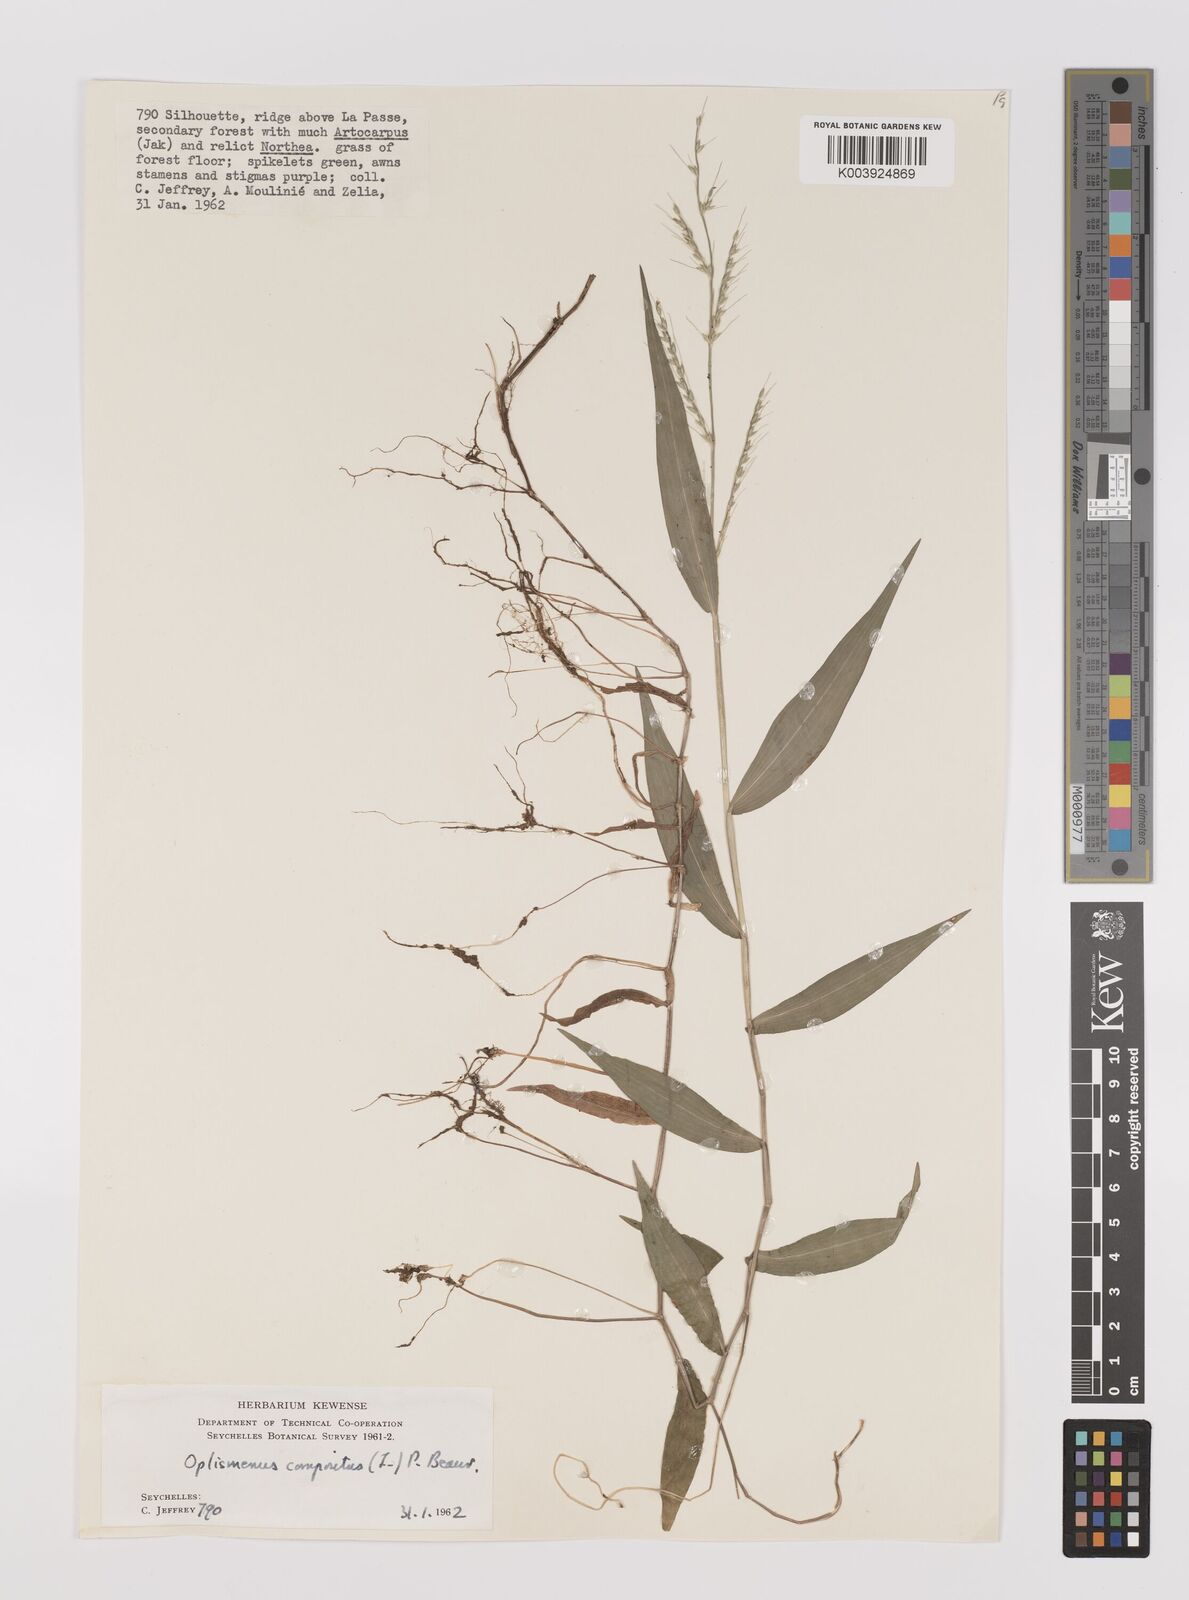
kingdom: Plantae
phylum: Tracheophyta
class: Liliopsida
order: Poales
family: Poaceae
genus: Oplismenus
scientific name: Oplismenus compositus
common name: Running mountain grass
